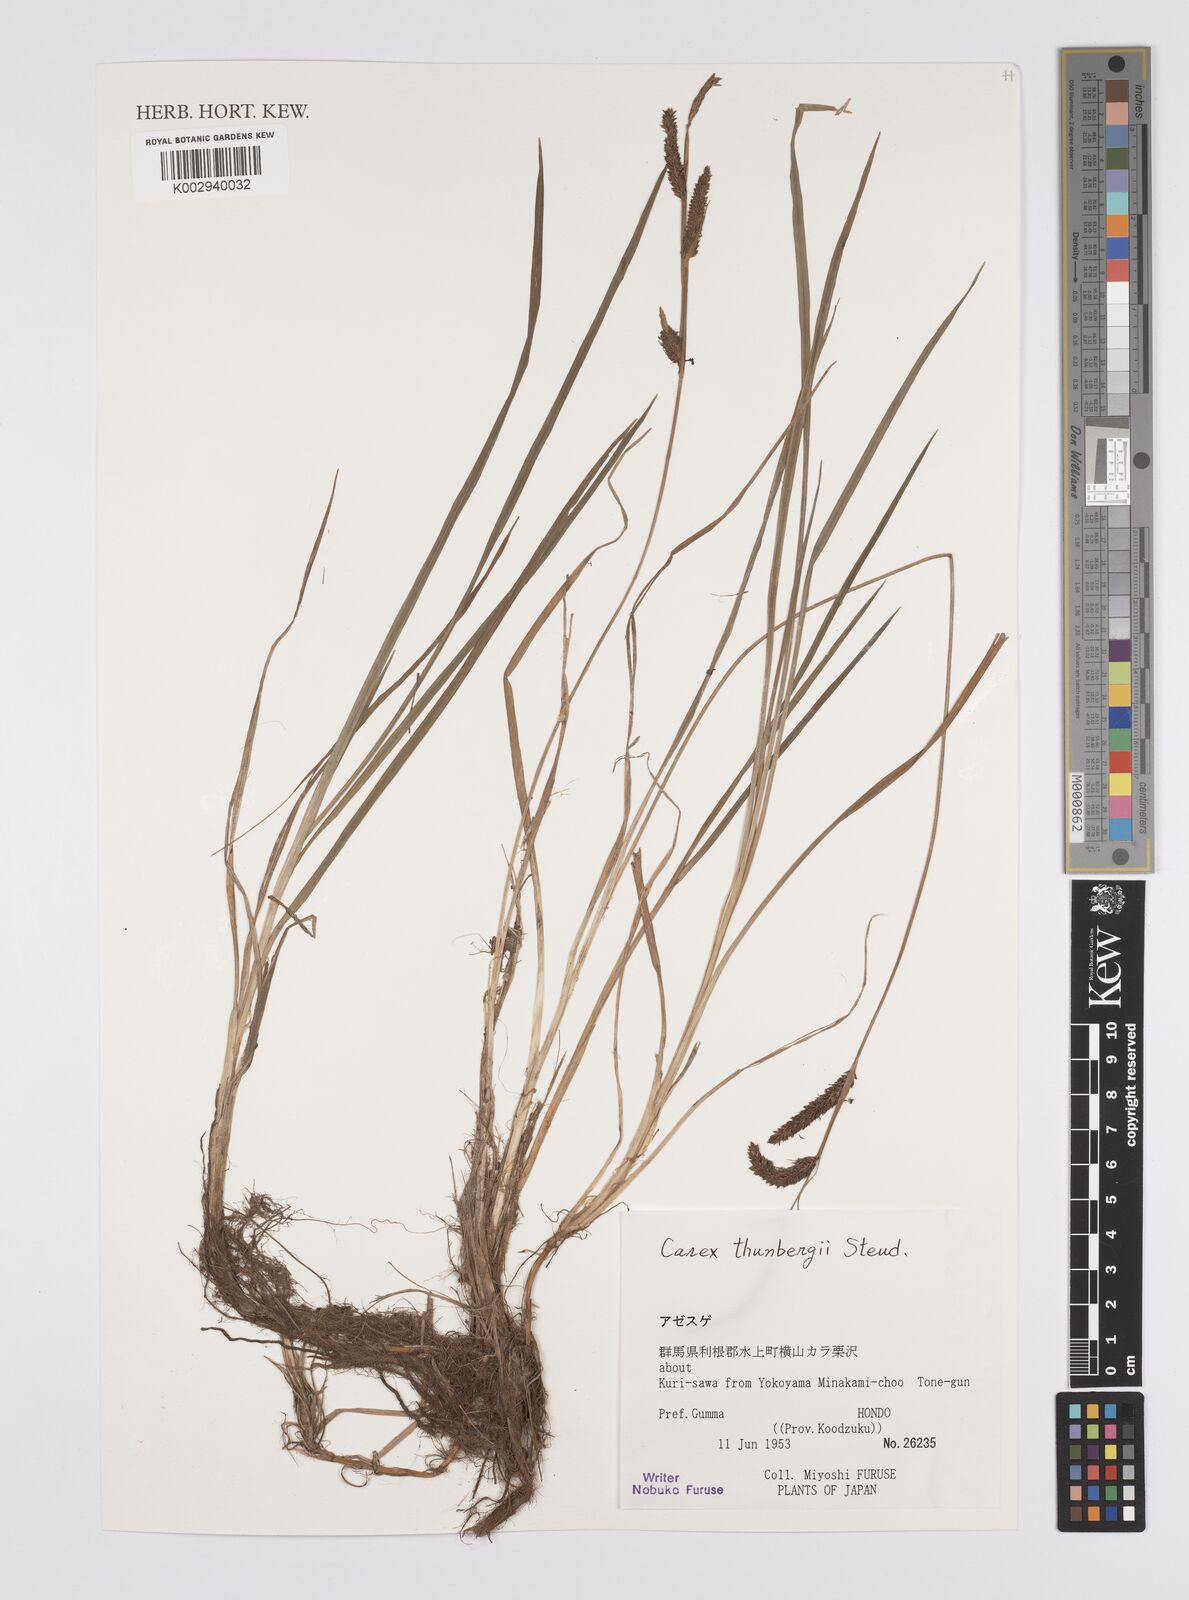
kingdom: Plantae
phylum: Tracheophyta
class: Liliopsida
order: Poales
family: Cyperaceae
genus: Carex
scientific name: Carex thunbergii
